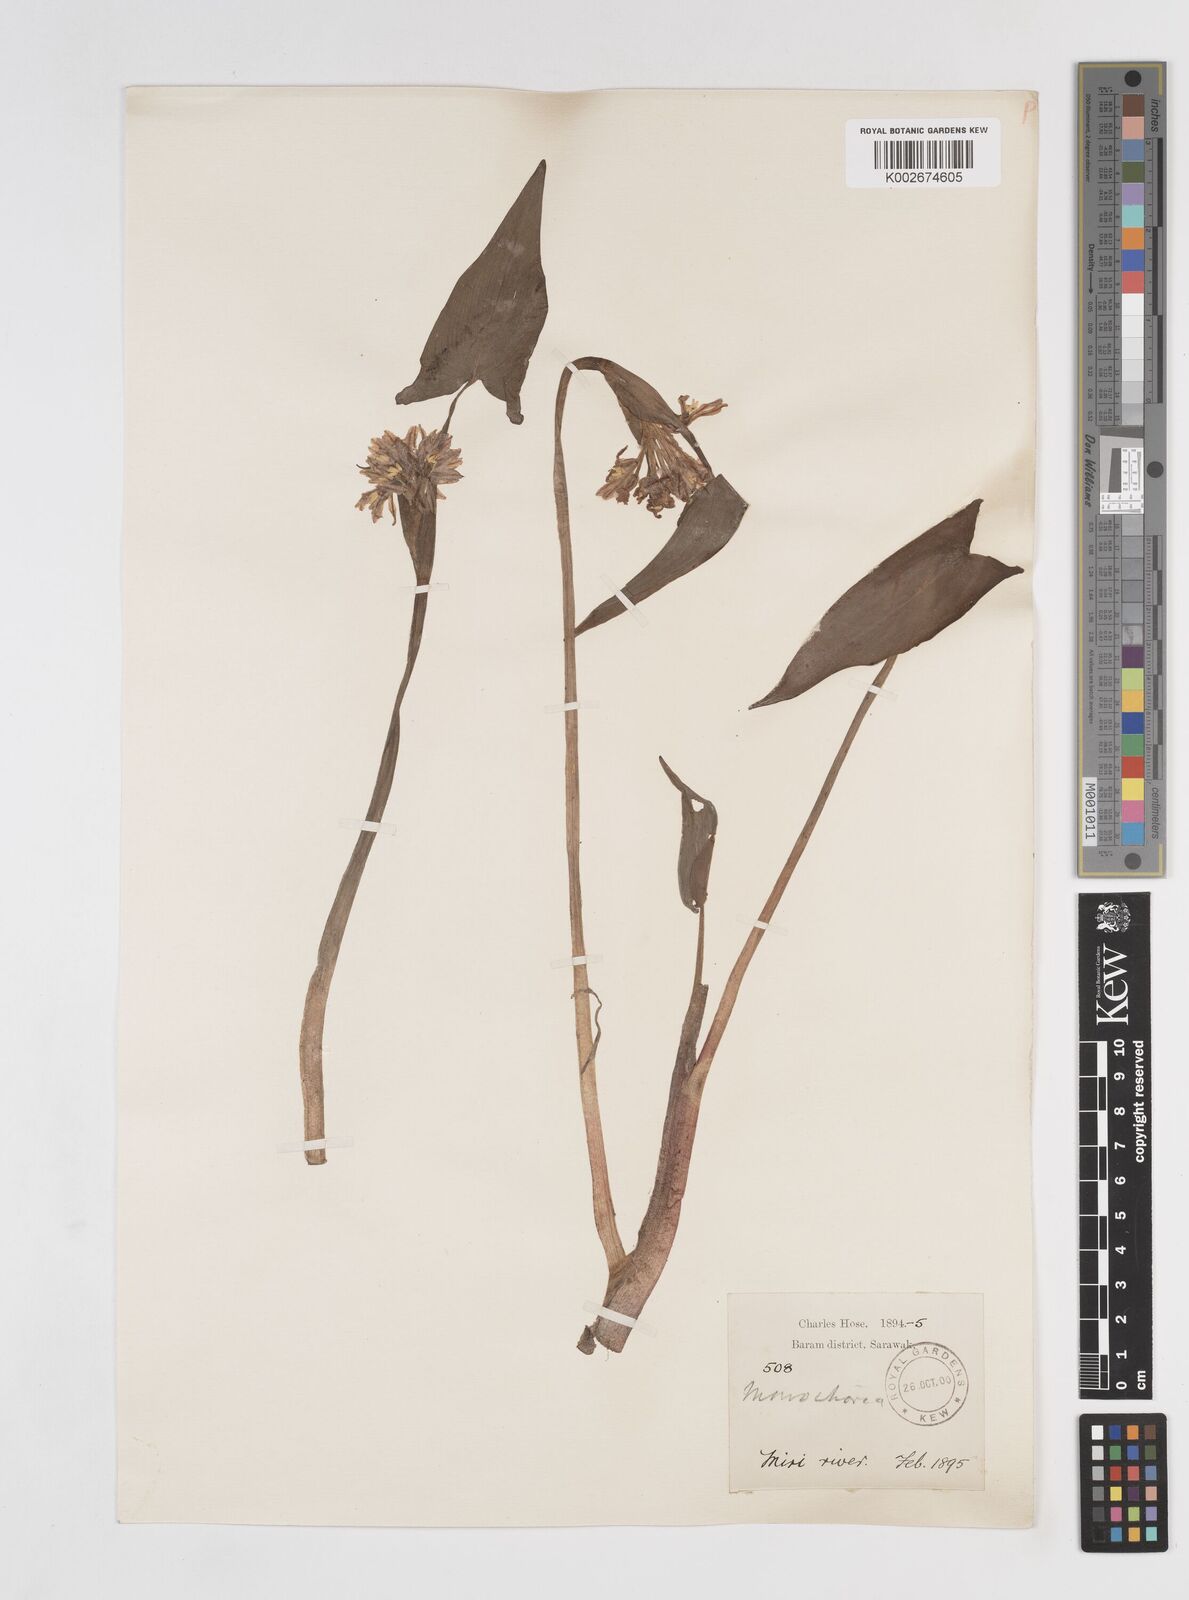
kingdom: Plantae
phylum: Tracheophyta
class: Liliopsida
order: Commelinales
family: Pontederiaceae
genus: Pontederia
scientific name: Pontederia hastata
